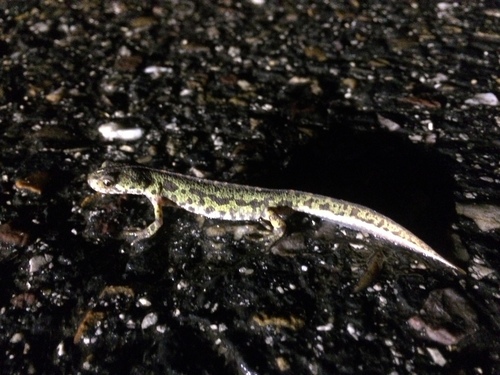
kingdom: Animalia
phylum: Chordata
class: Amphibia
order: Caudata
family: Salamandridae
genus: Triturus
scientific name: Triturus pygmaeus
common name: Southern marbled newt
